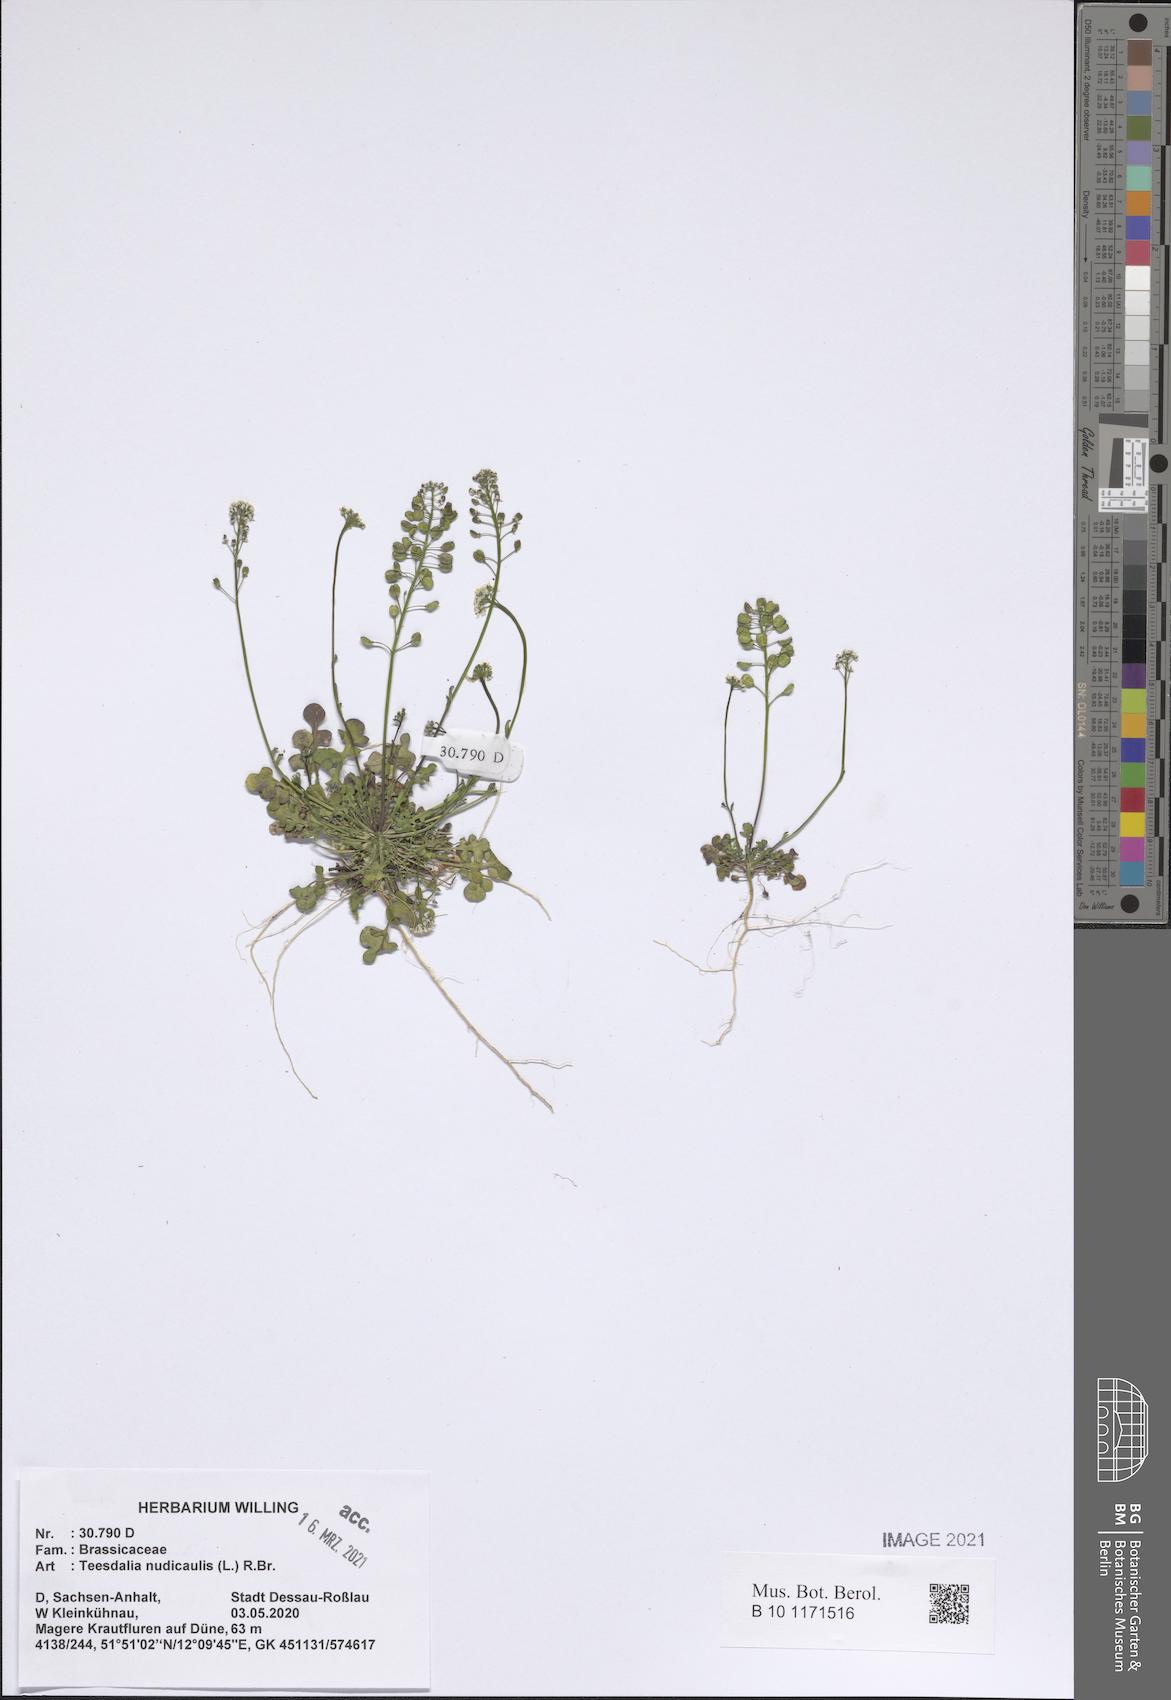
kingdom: Plantae
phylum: Tracheophyta
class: Magnoliopsida
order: Brassicales
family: Brassicaceae
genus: Teesdalia
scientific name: Teesdalia nudicaulis
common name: Shepherd's cress
